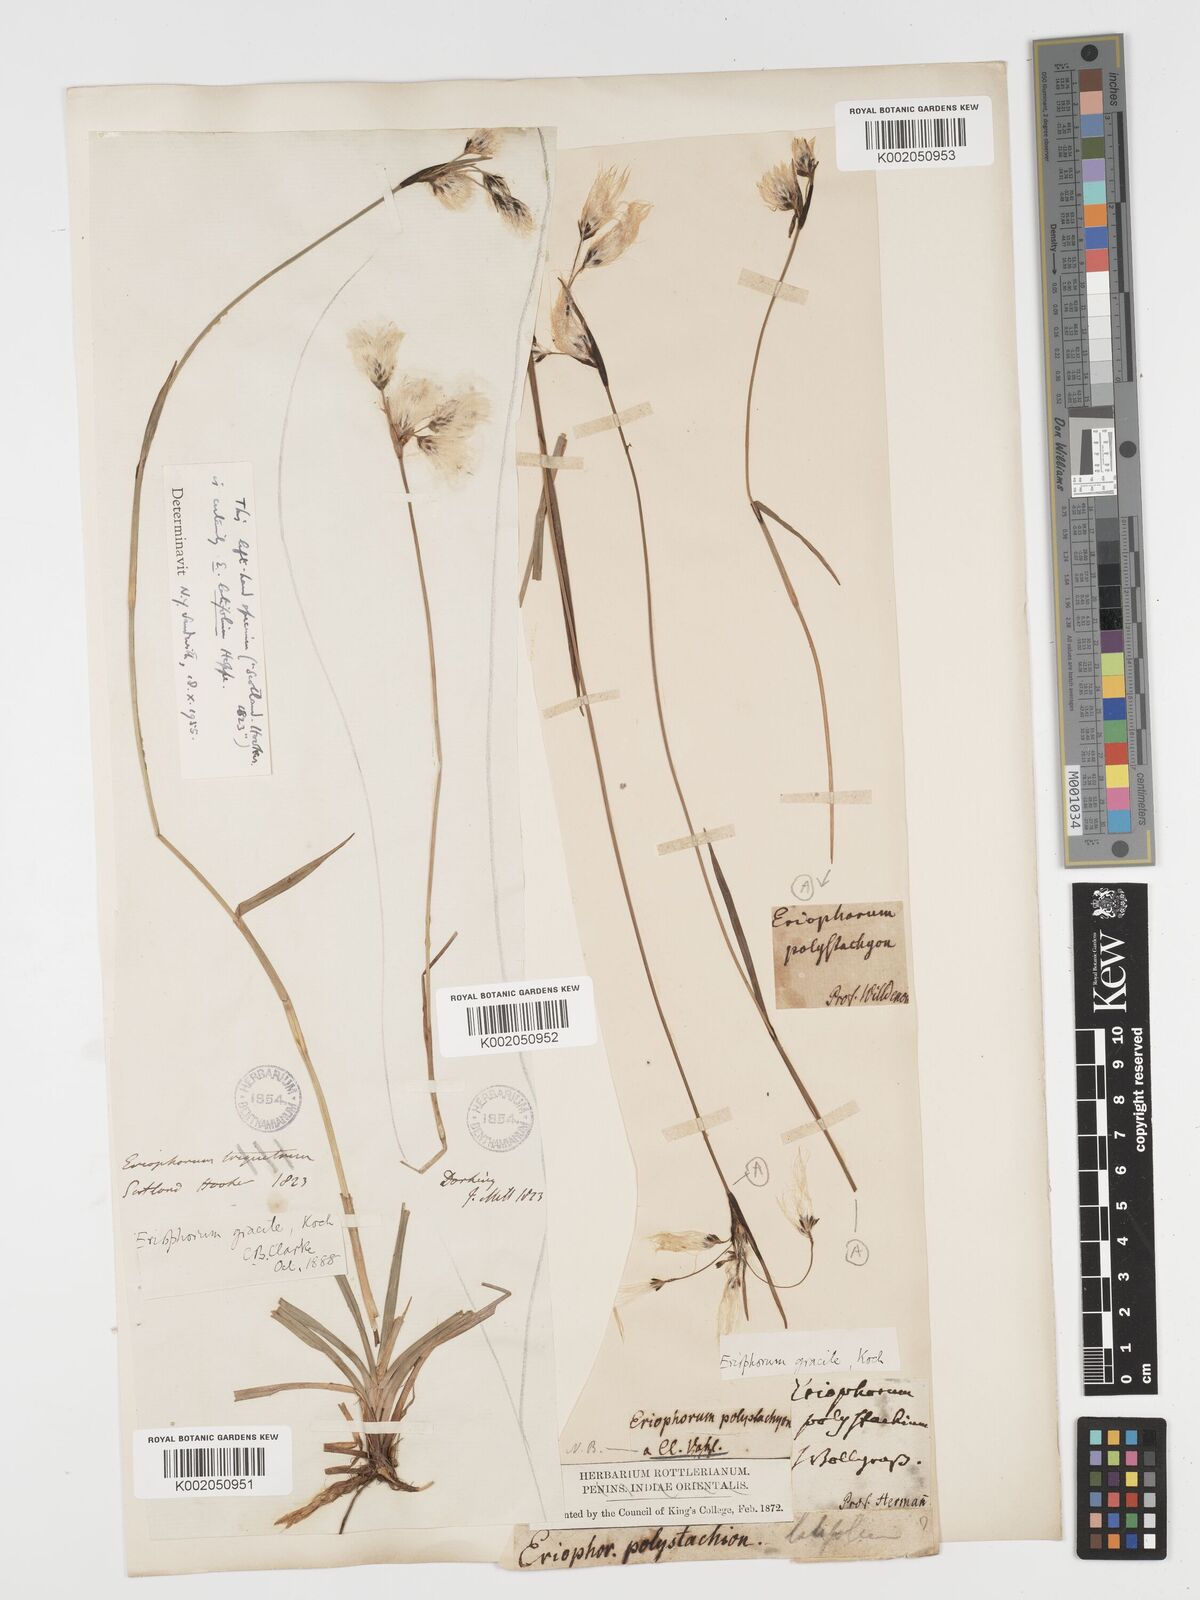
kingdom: Plantae
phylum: Tracheophyta
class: Liliopsida
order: Poales
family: Cyperaceae
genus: Eriophorum
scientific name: Eriophorum angustifolium
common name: Common cottongrass
